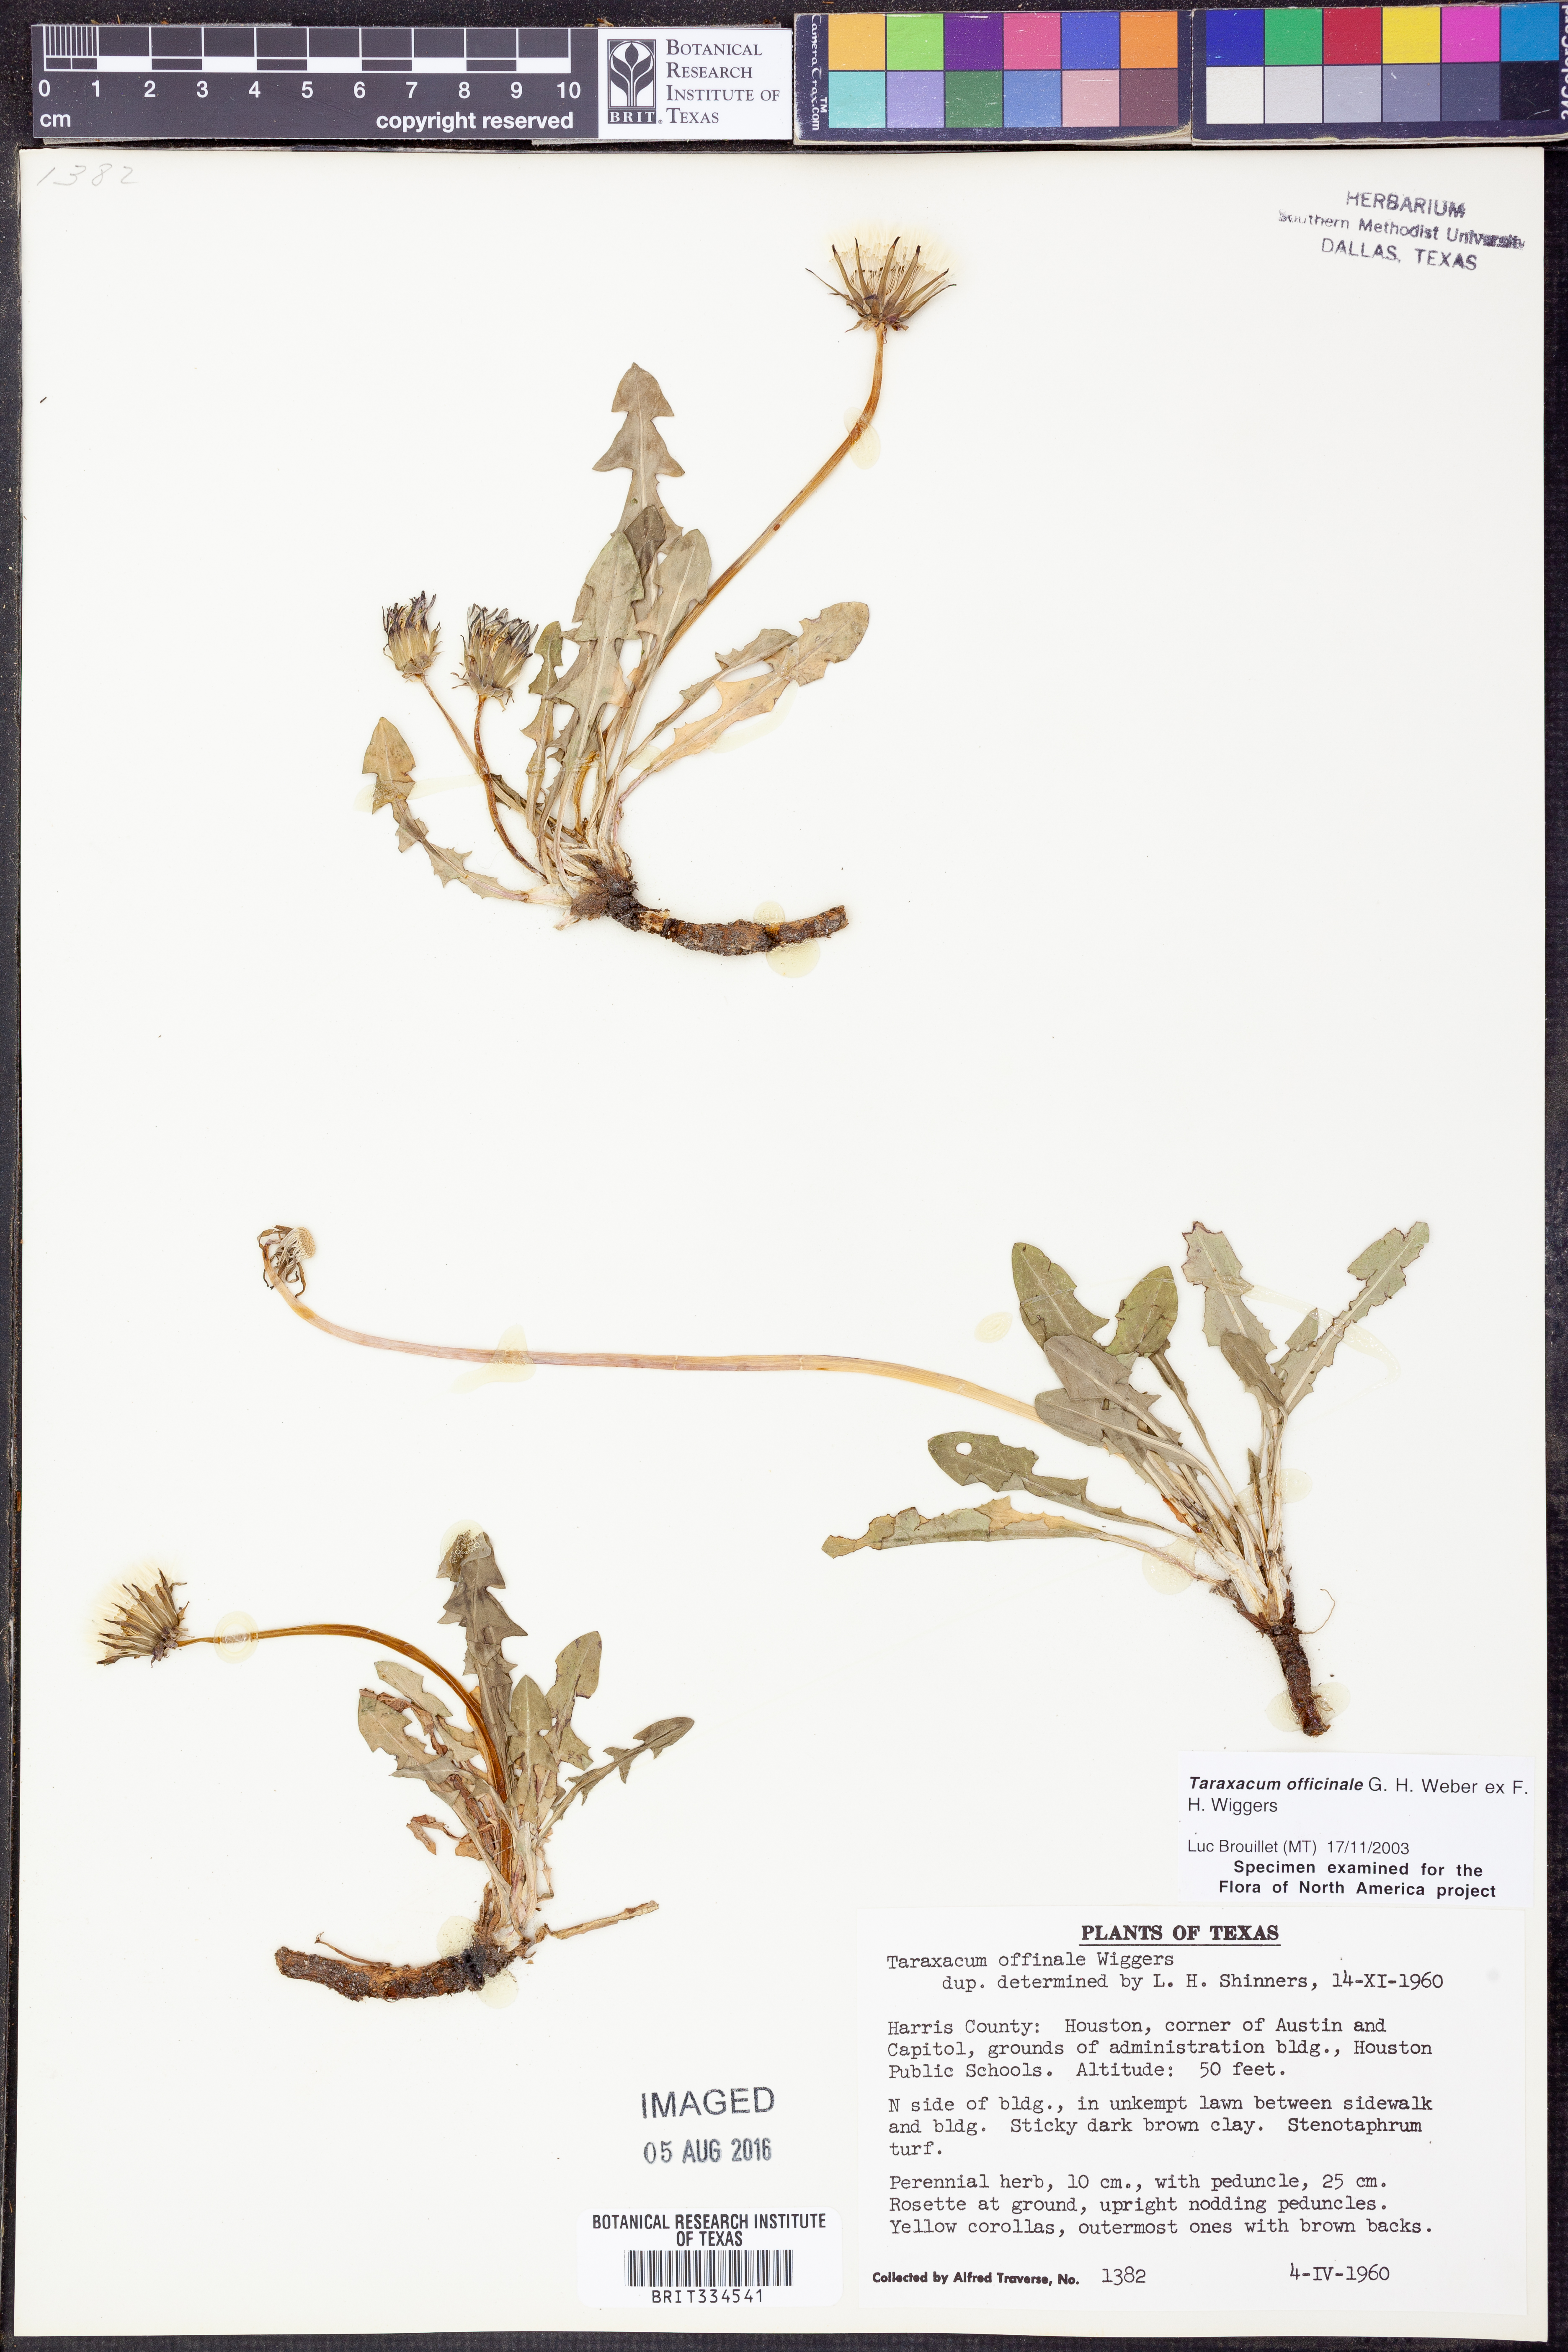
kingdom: Plantae
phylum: Tracheophyta
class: Magnoliopsida
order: Asterales
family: Asteraceae
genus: Taraxacum
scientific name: Taraxacum officinale
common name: Common dandelion
